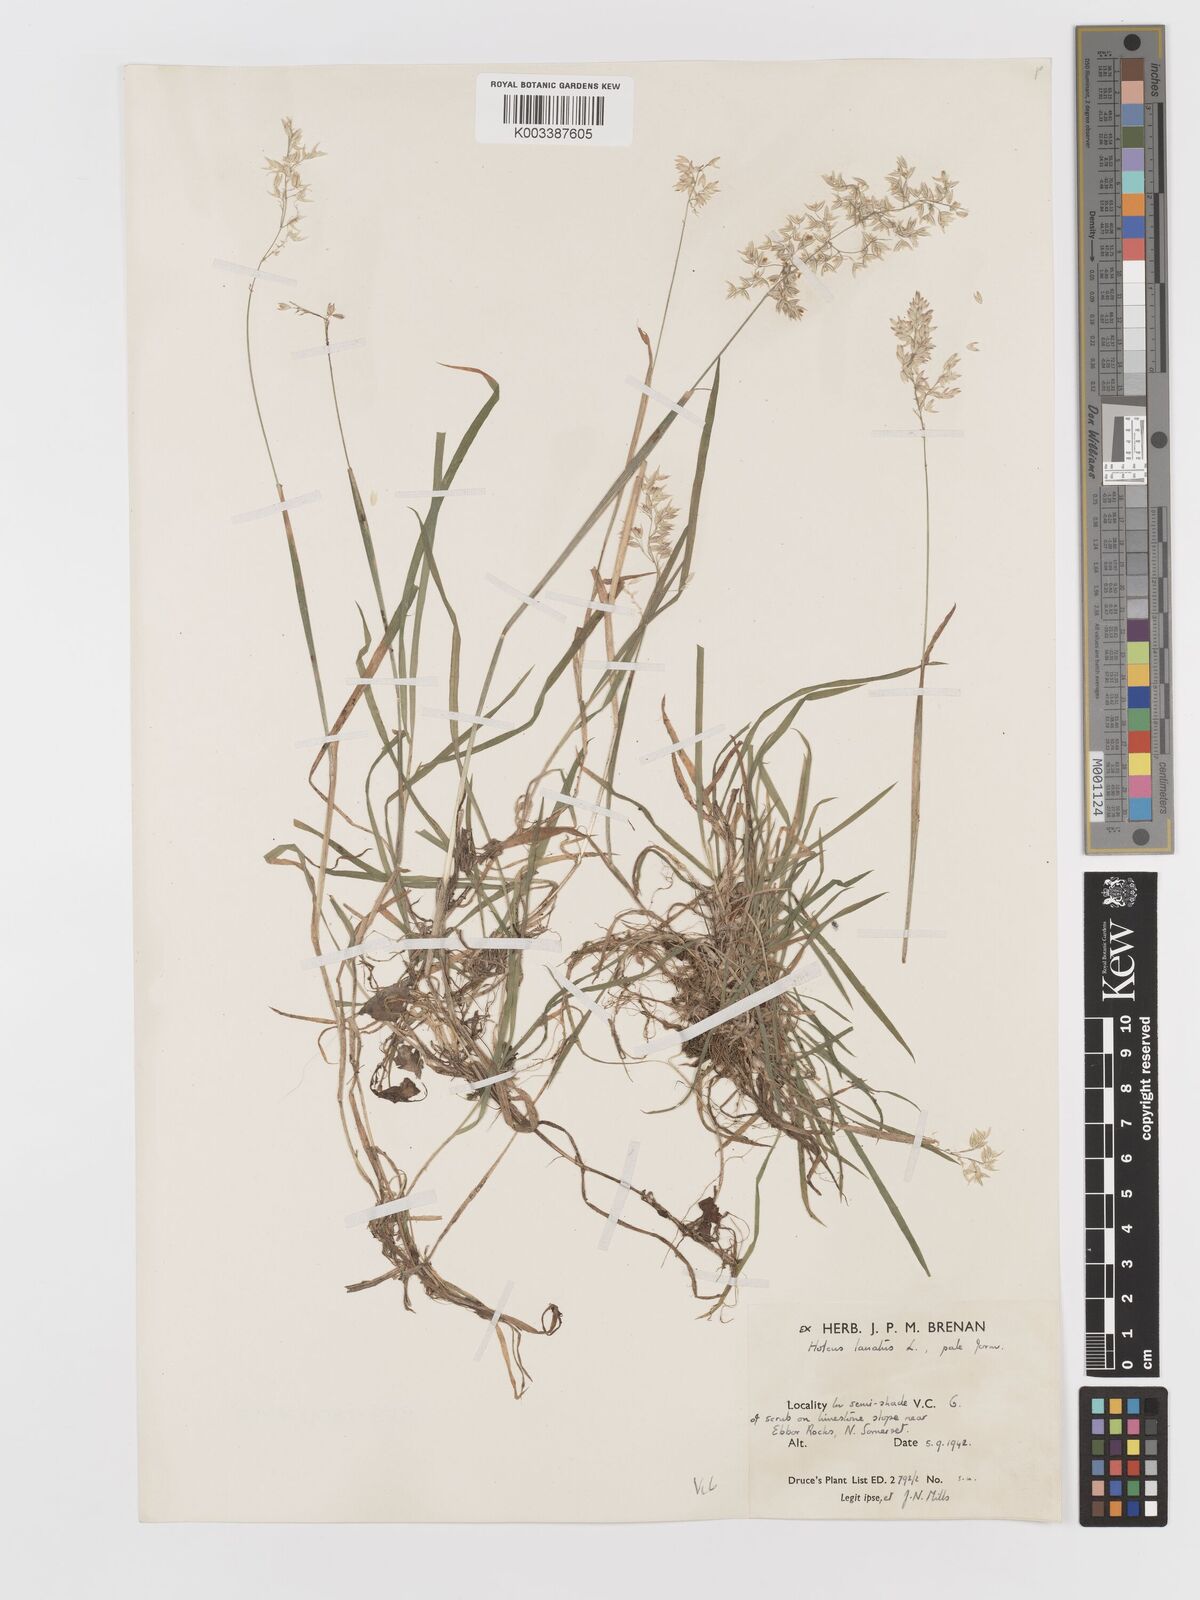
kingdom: Plantae
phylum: Tracheophyta
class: Liliopsida
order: Poales
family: Poaceae
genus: Holcus
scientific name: Holcus lanatus
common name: Yorkshire-fog
